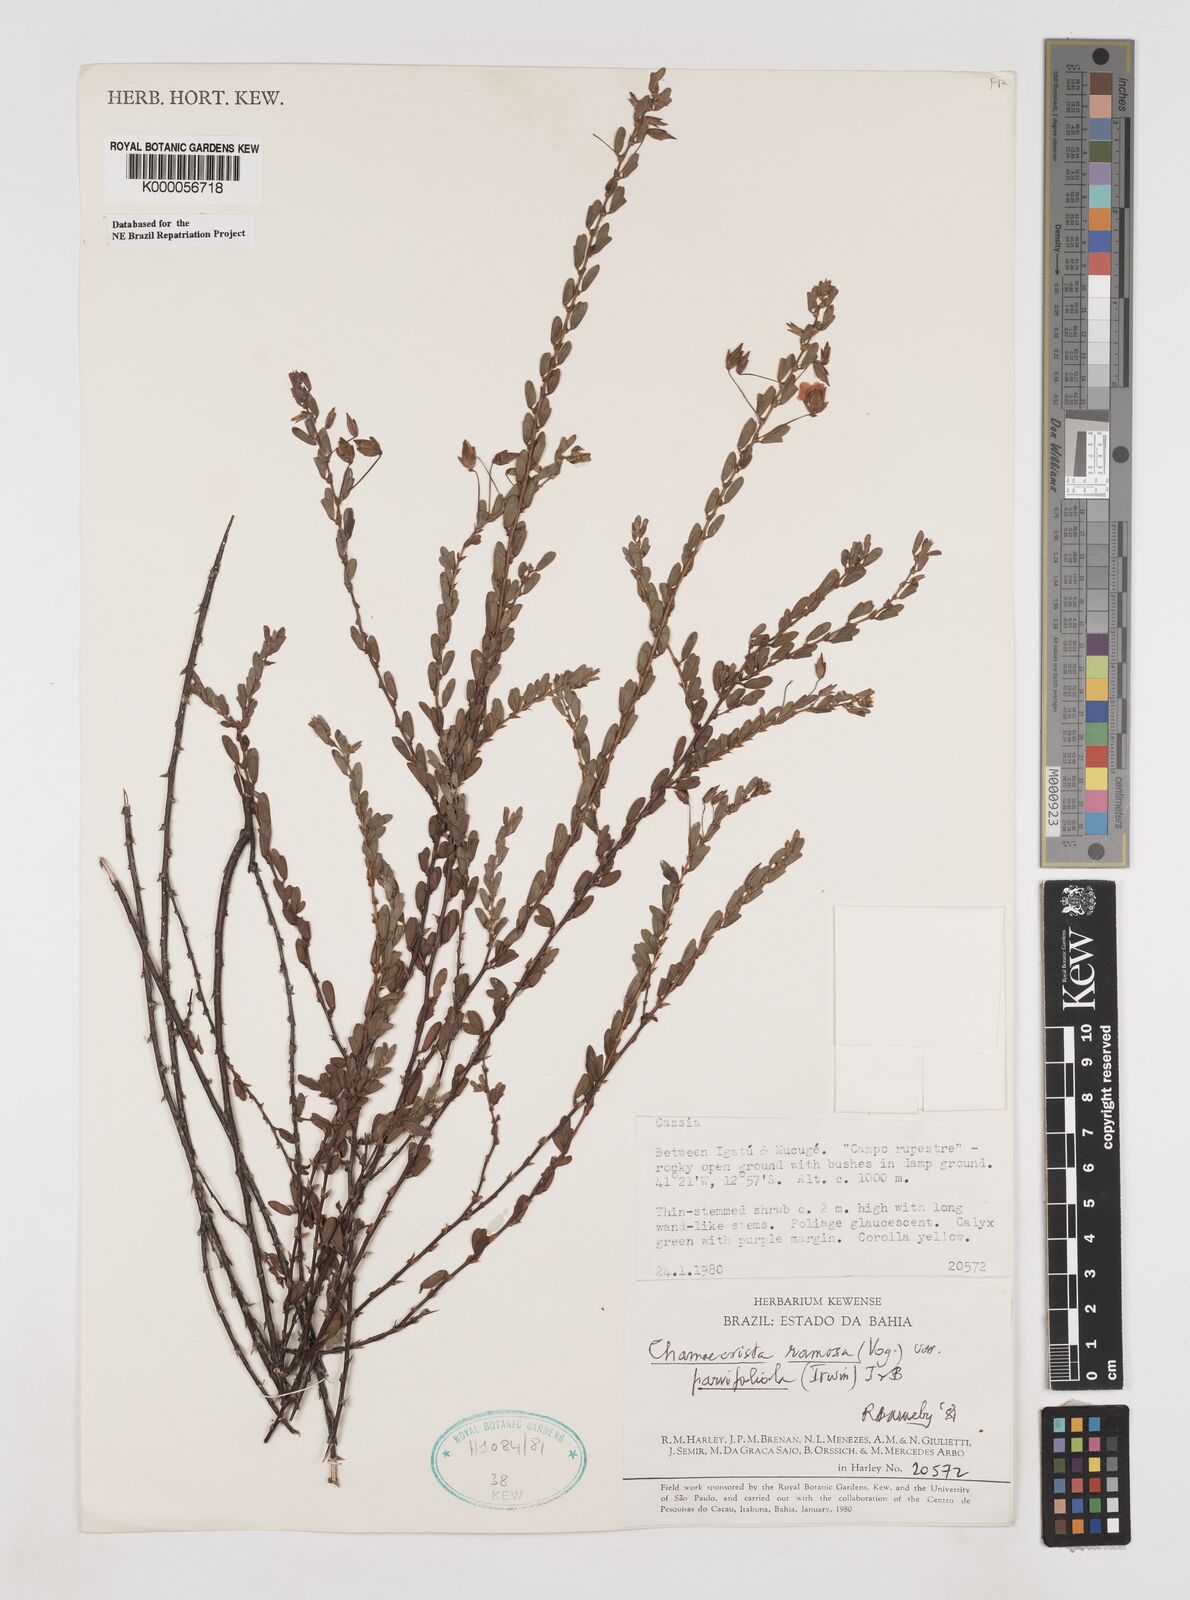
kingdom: Plantae
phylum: Tracheophyta
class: Magnoliopsida
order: Fabales
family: Fabaceae
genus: Chamaecrista
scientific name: Chamaecrista ramosa
